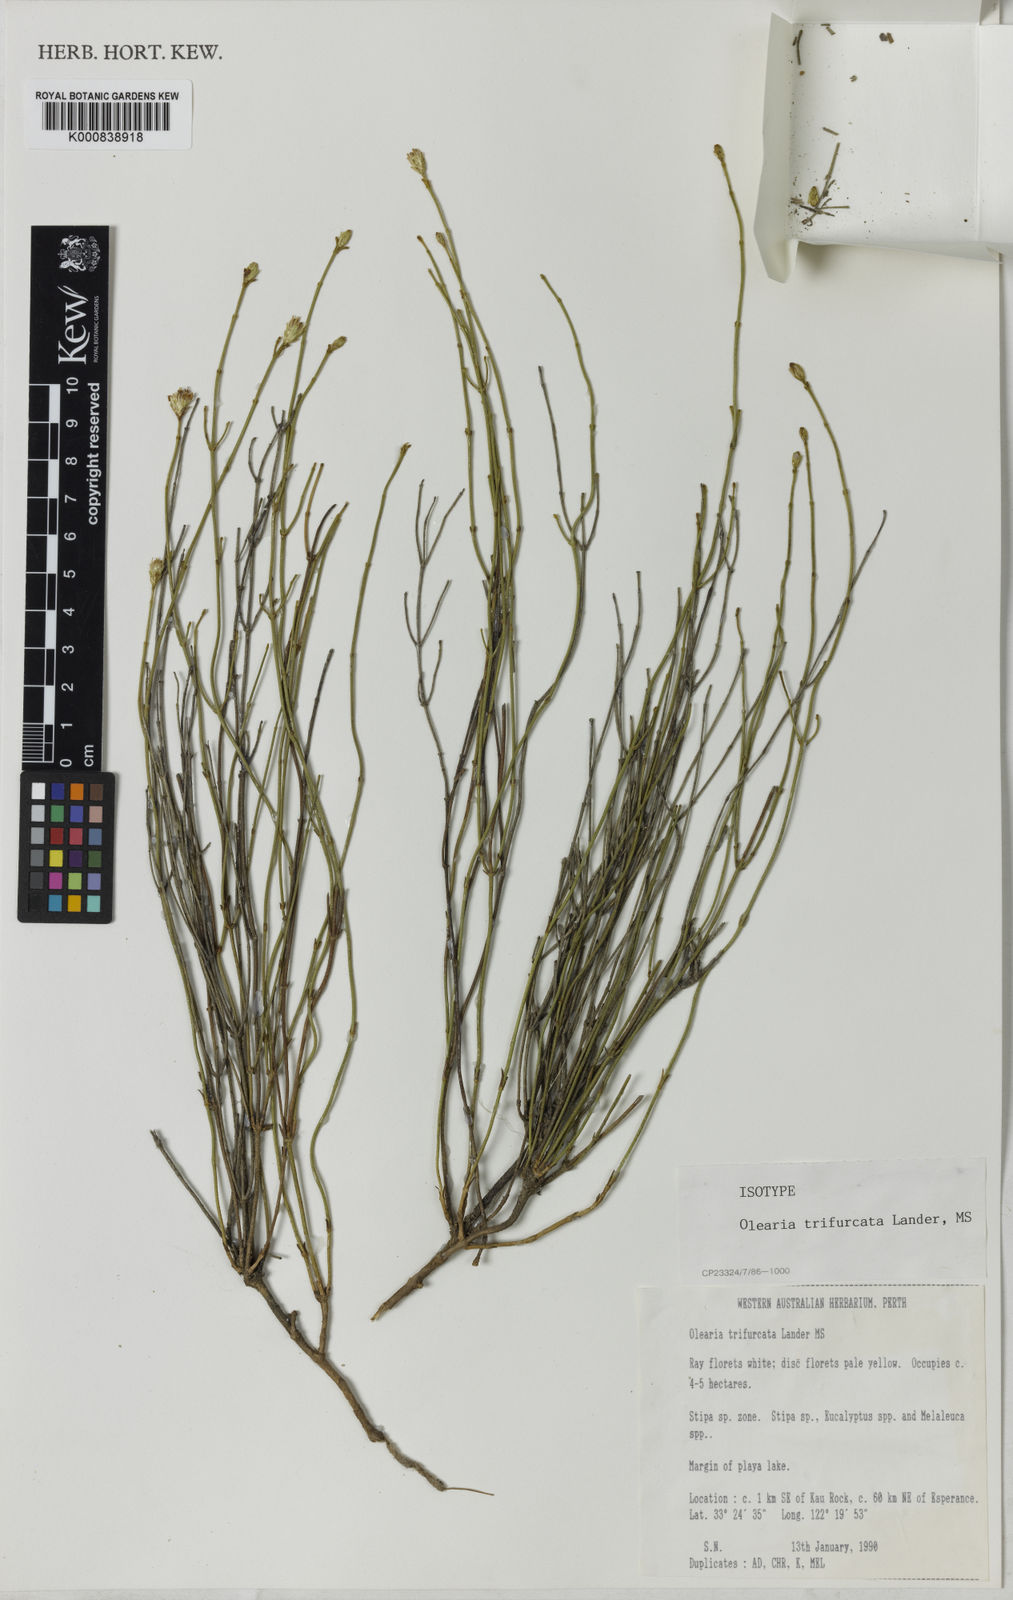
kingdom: Plantae
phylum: Tracheophyta
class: Magnoliopsida
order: Asterales
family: Asteraceae
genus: Ephedrides
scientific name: Ephedrides trifurcata
